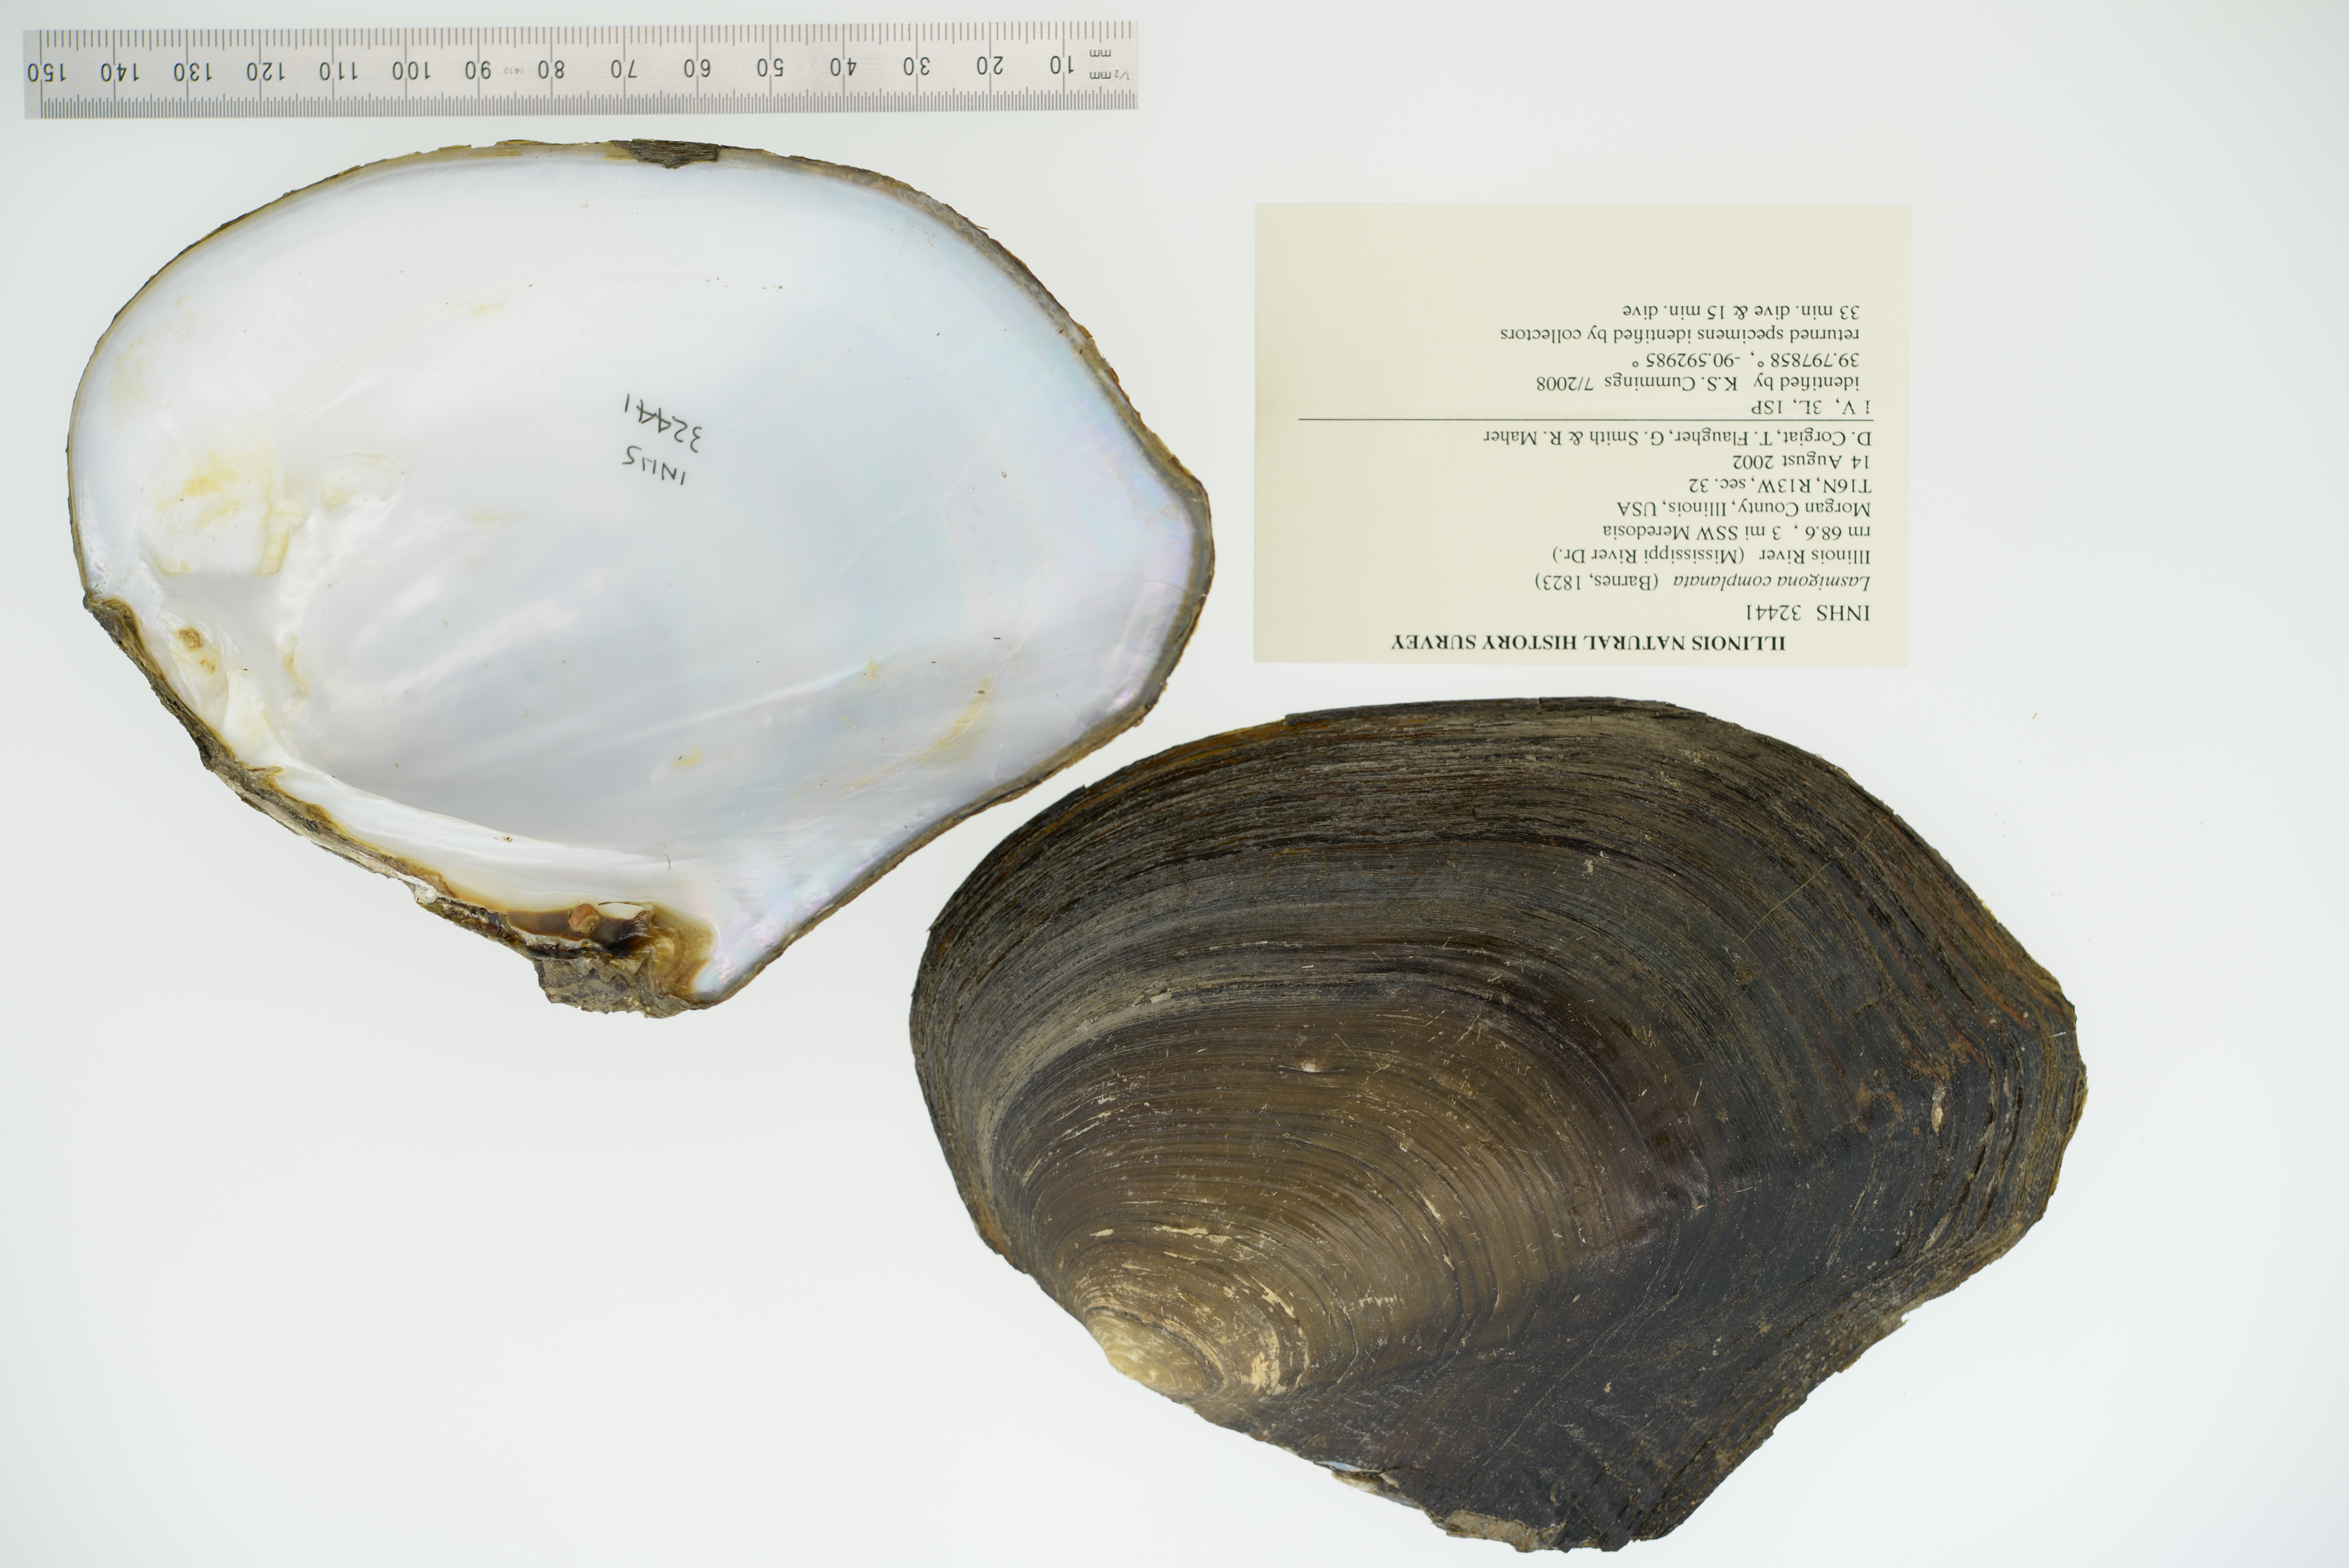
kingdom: Animalia
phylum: Mollusca
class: Bivalvia
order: Unionida
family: Unionidae
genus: Lasmigona
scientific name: Lasmigona complanata
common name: White heelsplitter
